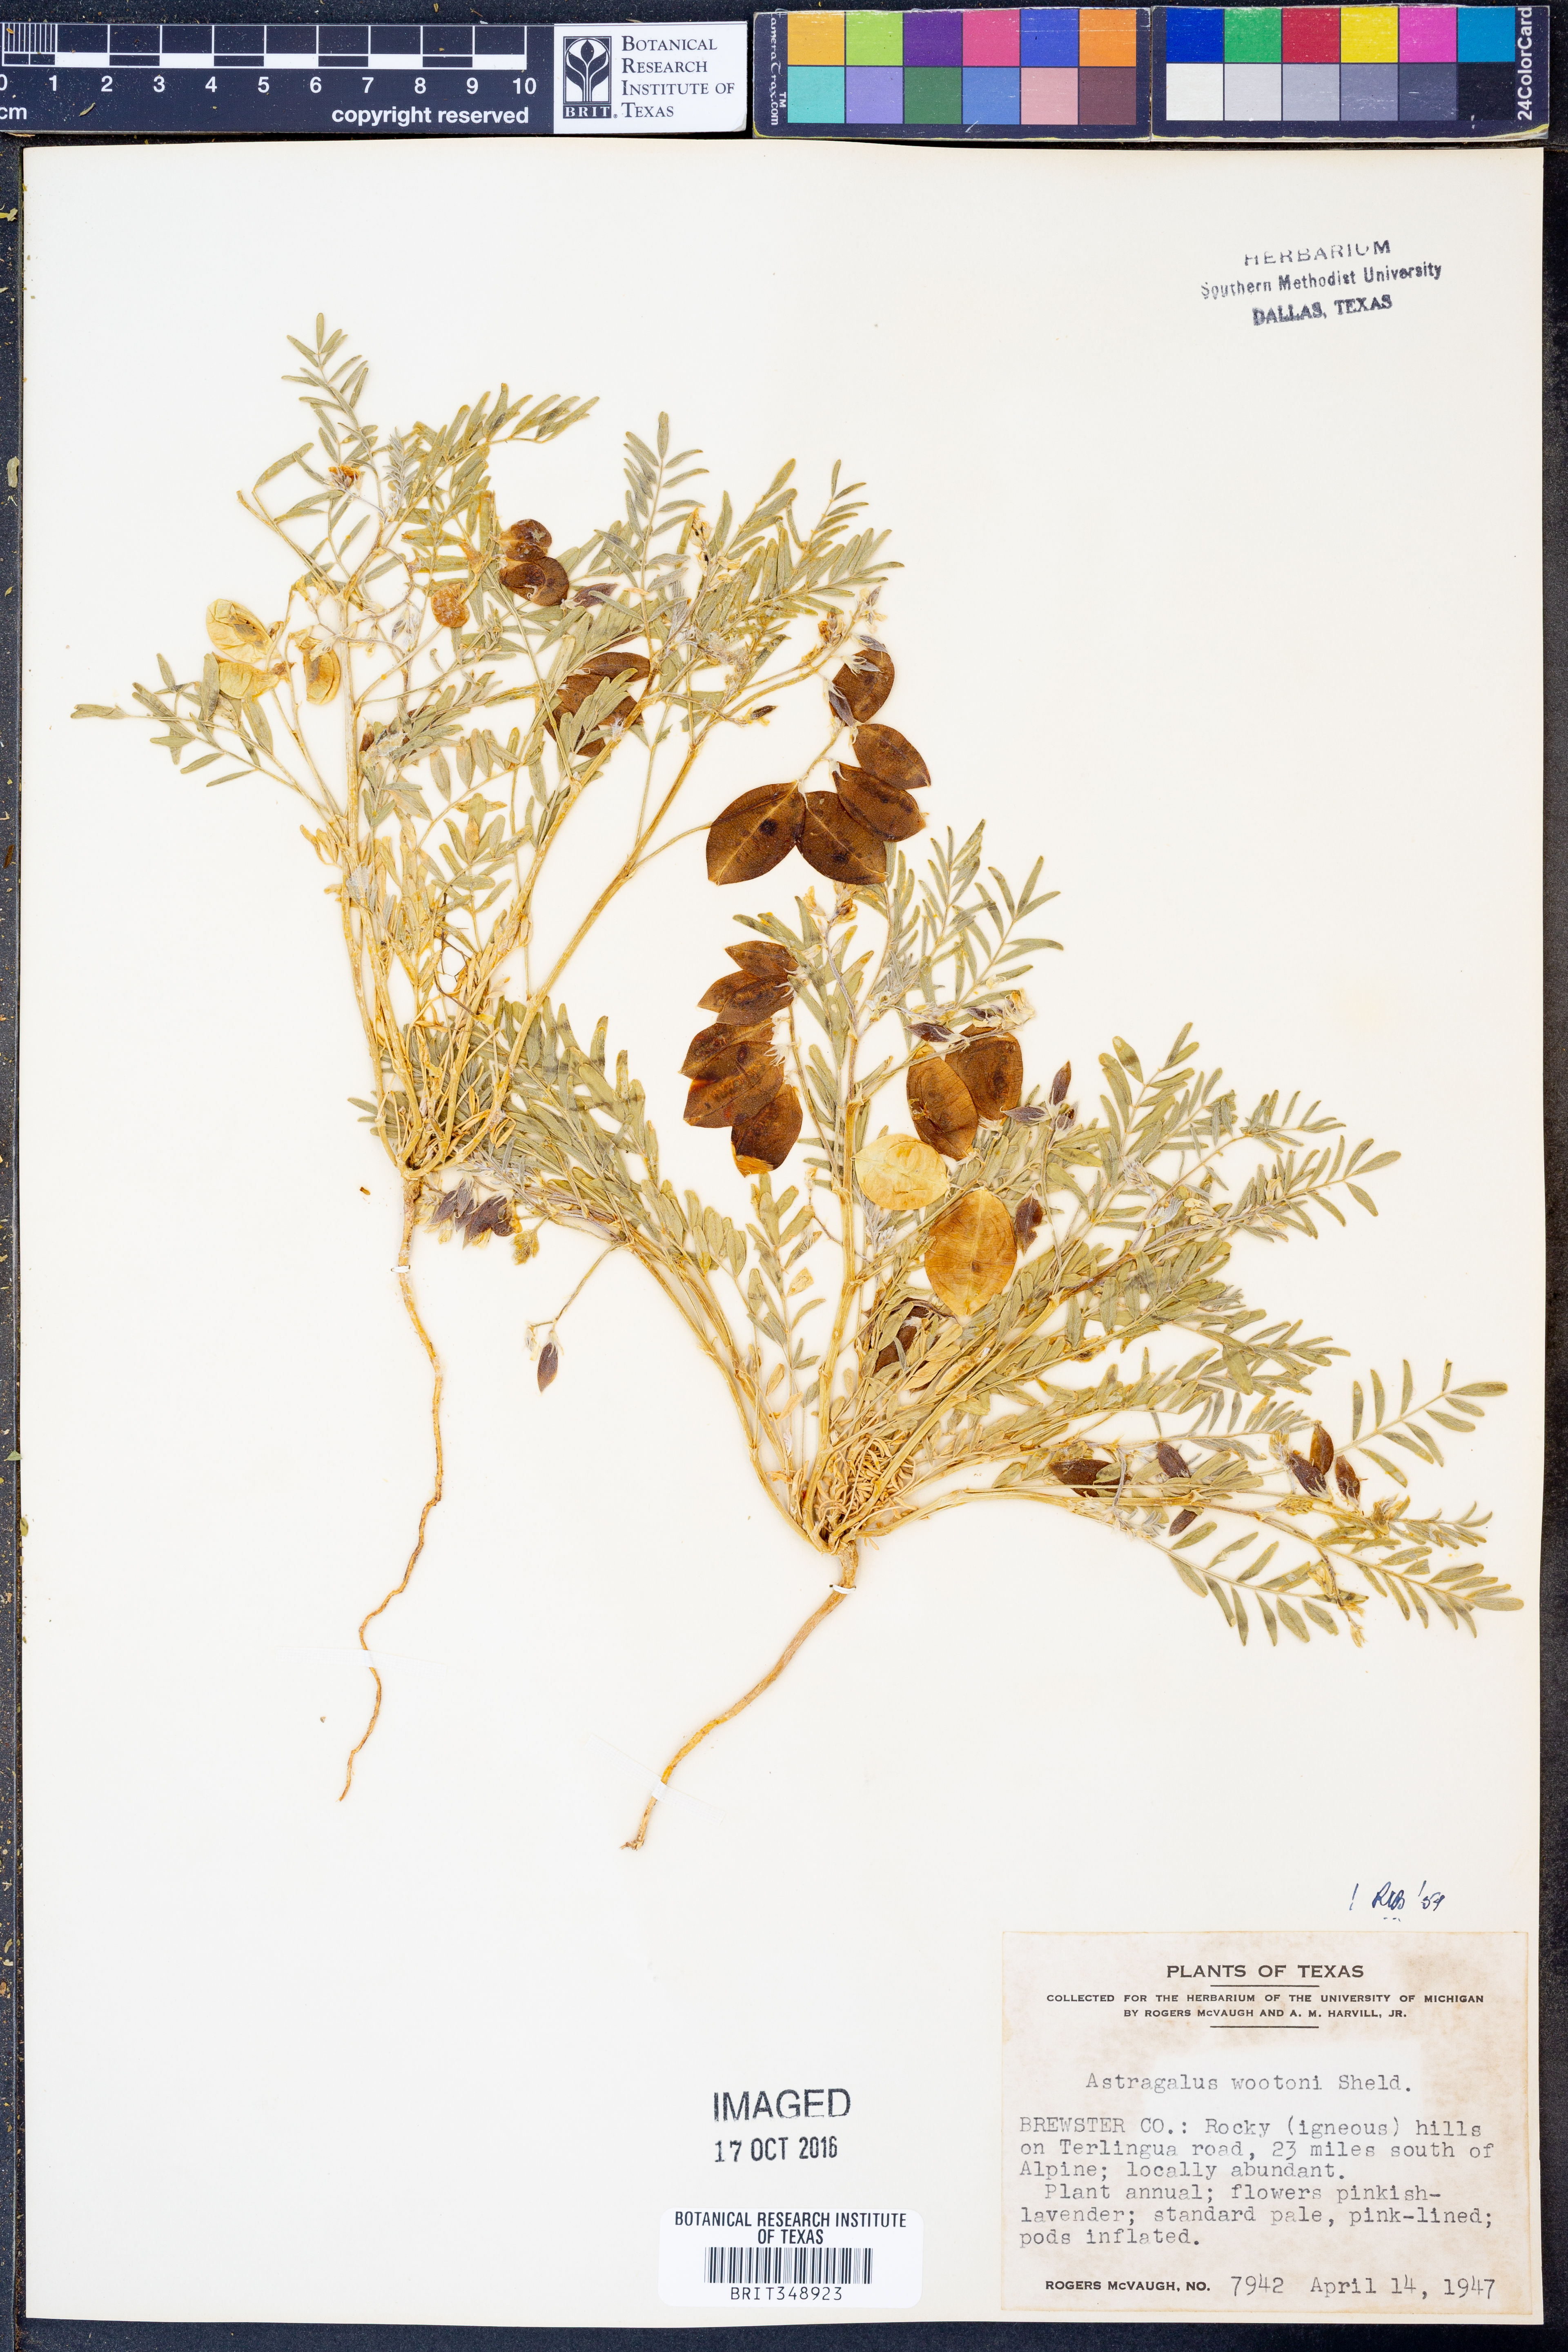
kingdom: Plantae
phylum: Tracheophyta
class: Magnoliopsida
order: Fabales
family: Fabaceae
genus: Astragalus
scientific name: Astragalus wootonii
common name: Wooton's milk-vetch
